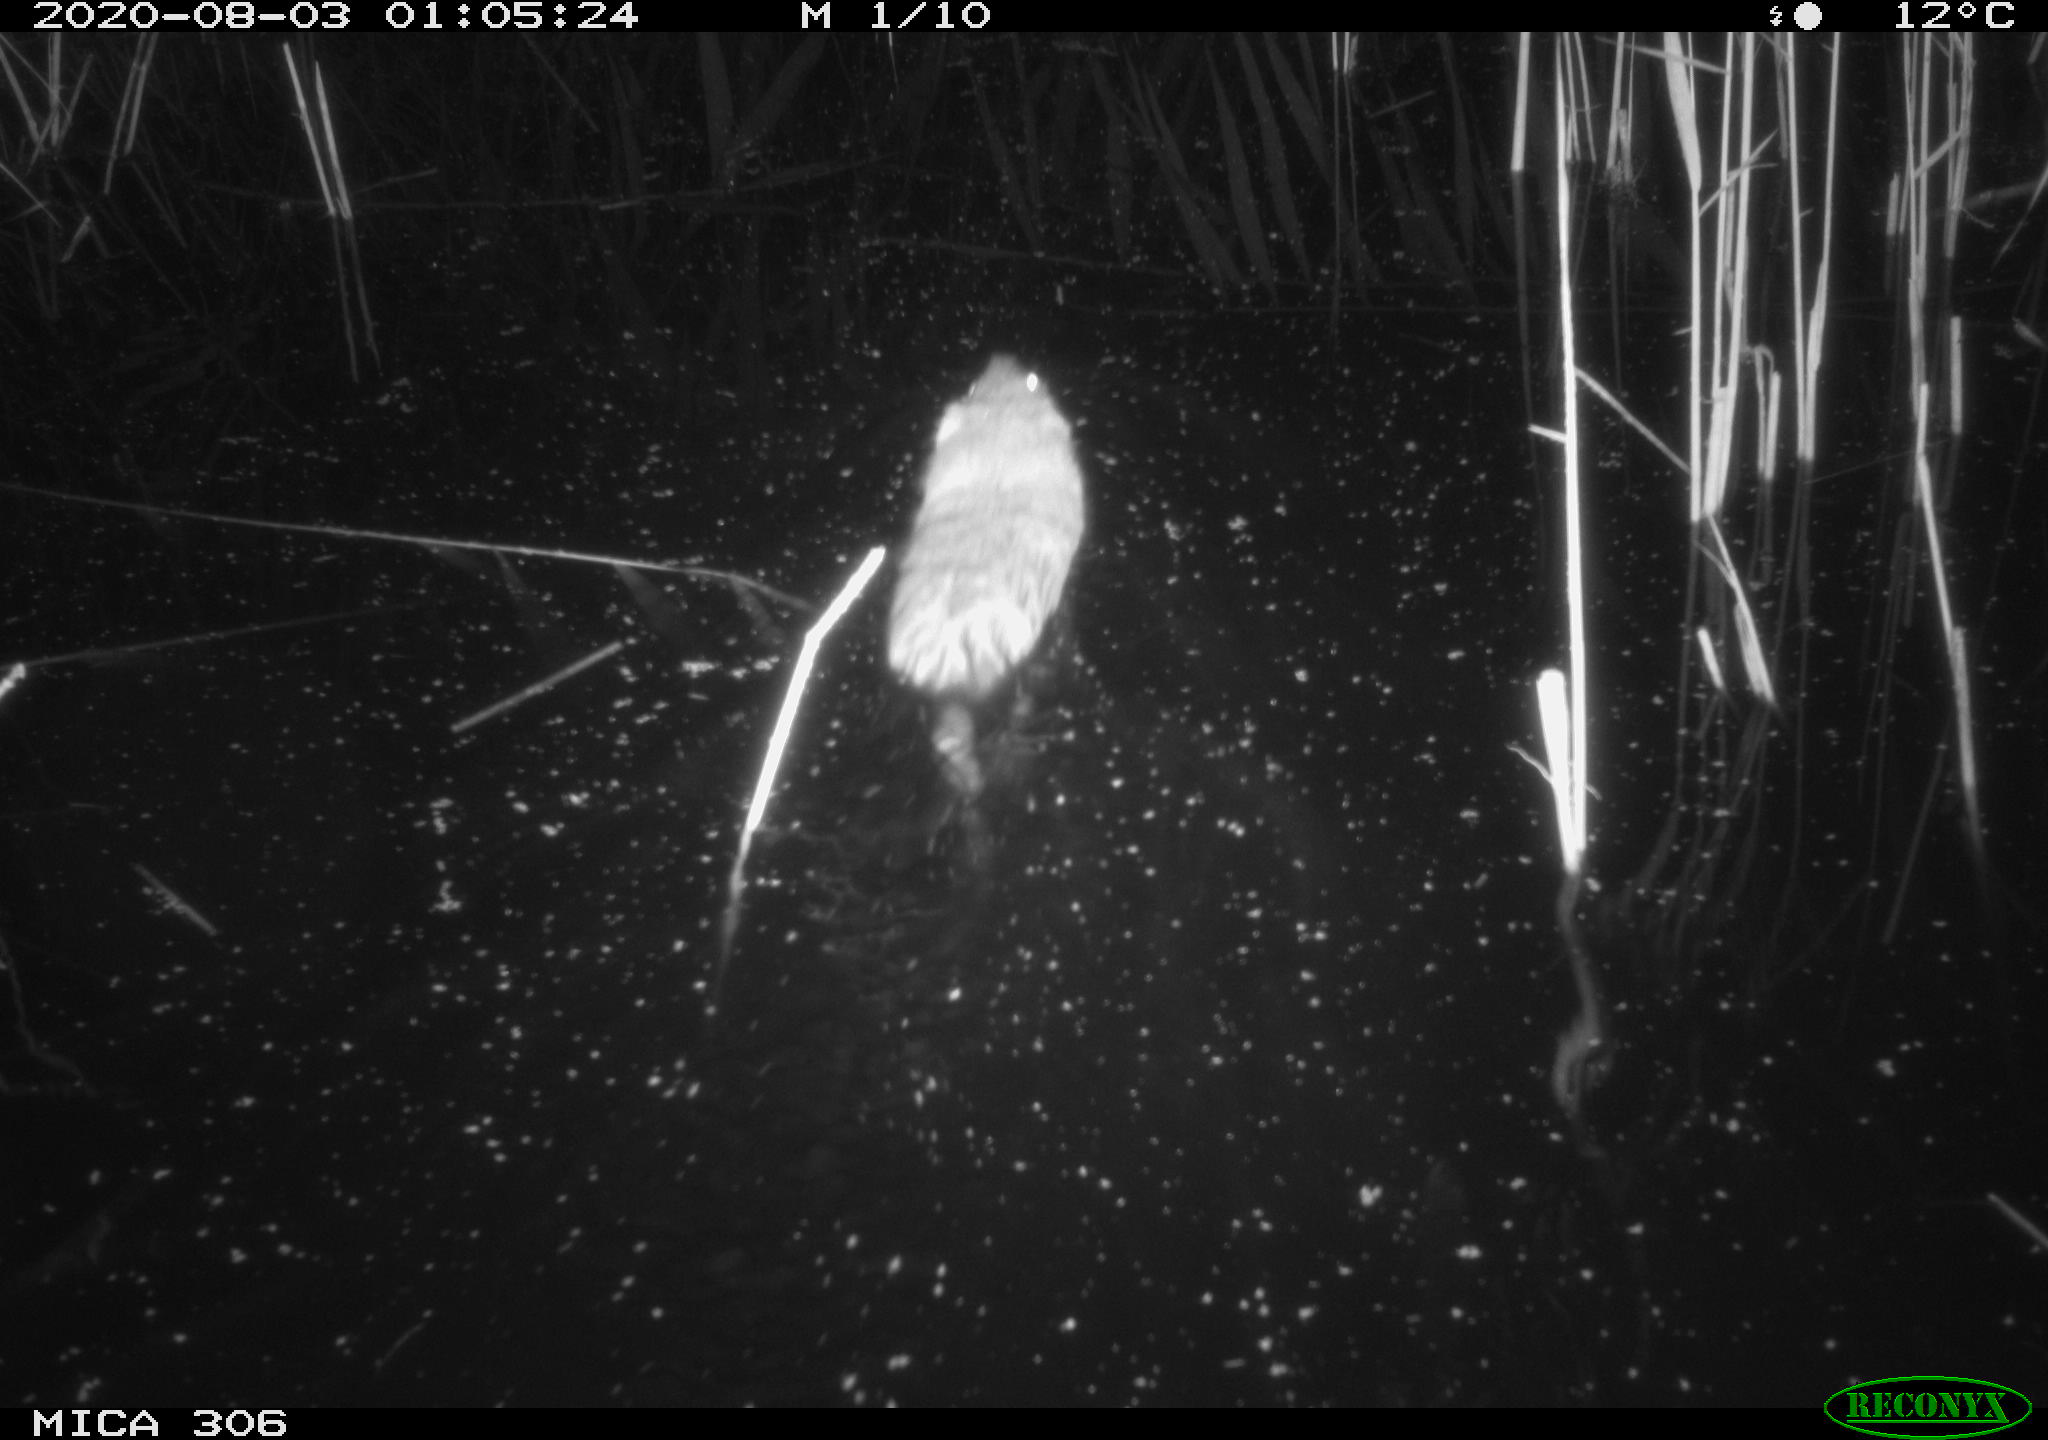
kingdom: Animalia
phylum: Chordata
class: Mammalia
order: Rodentia
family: Cricetidae
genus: Ondatra
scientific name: Ondatra zibethicus
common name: Muskrat
